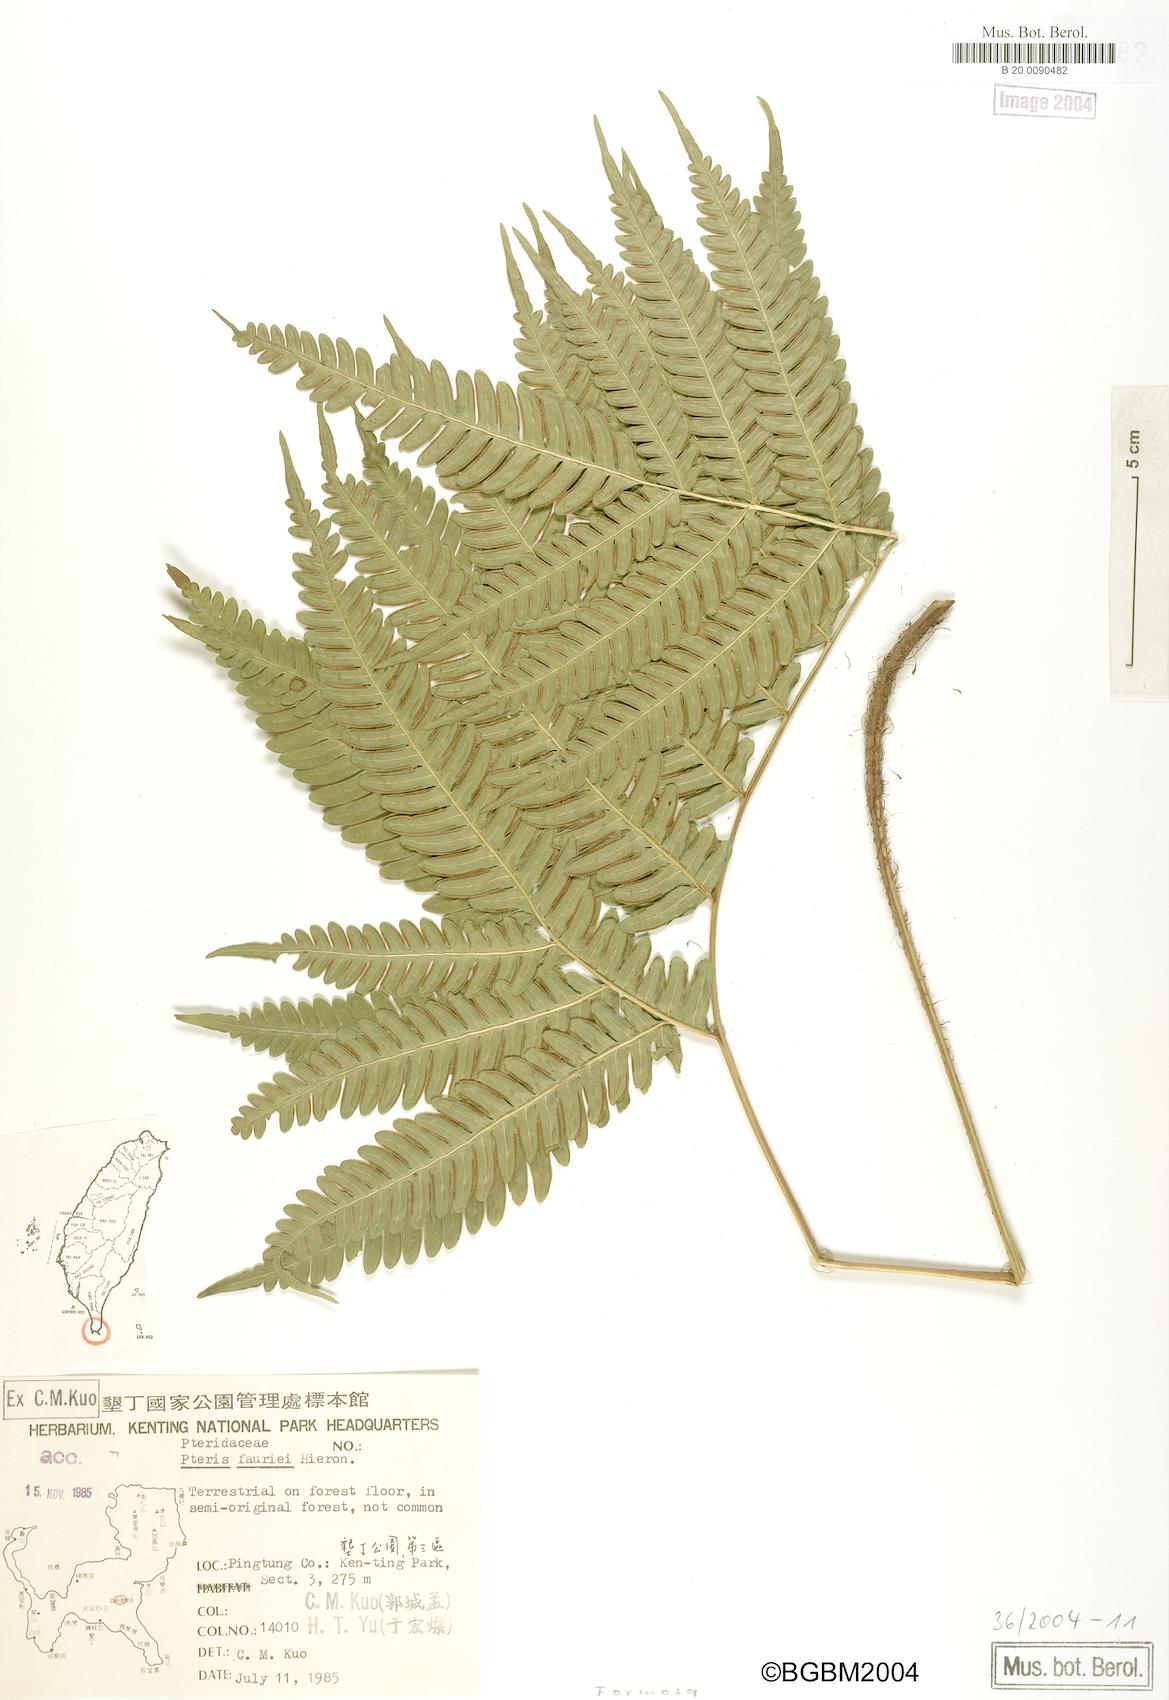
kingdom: Plantae
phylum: Tracheophyta
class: Polypodiopsida
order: Polypodiales
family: Pteridaceae
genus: Pteris
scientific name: Pteris fauriei
